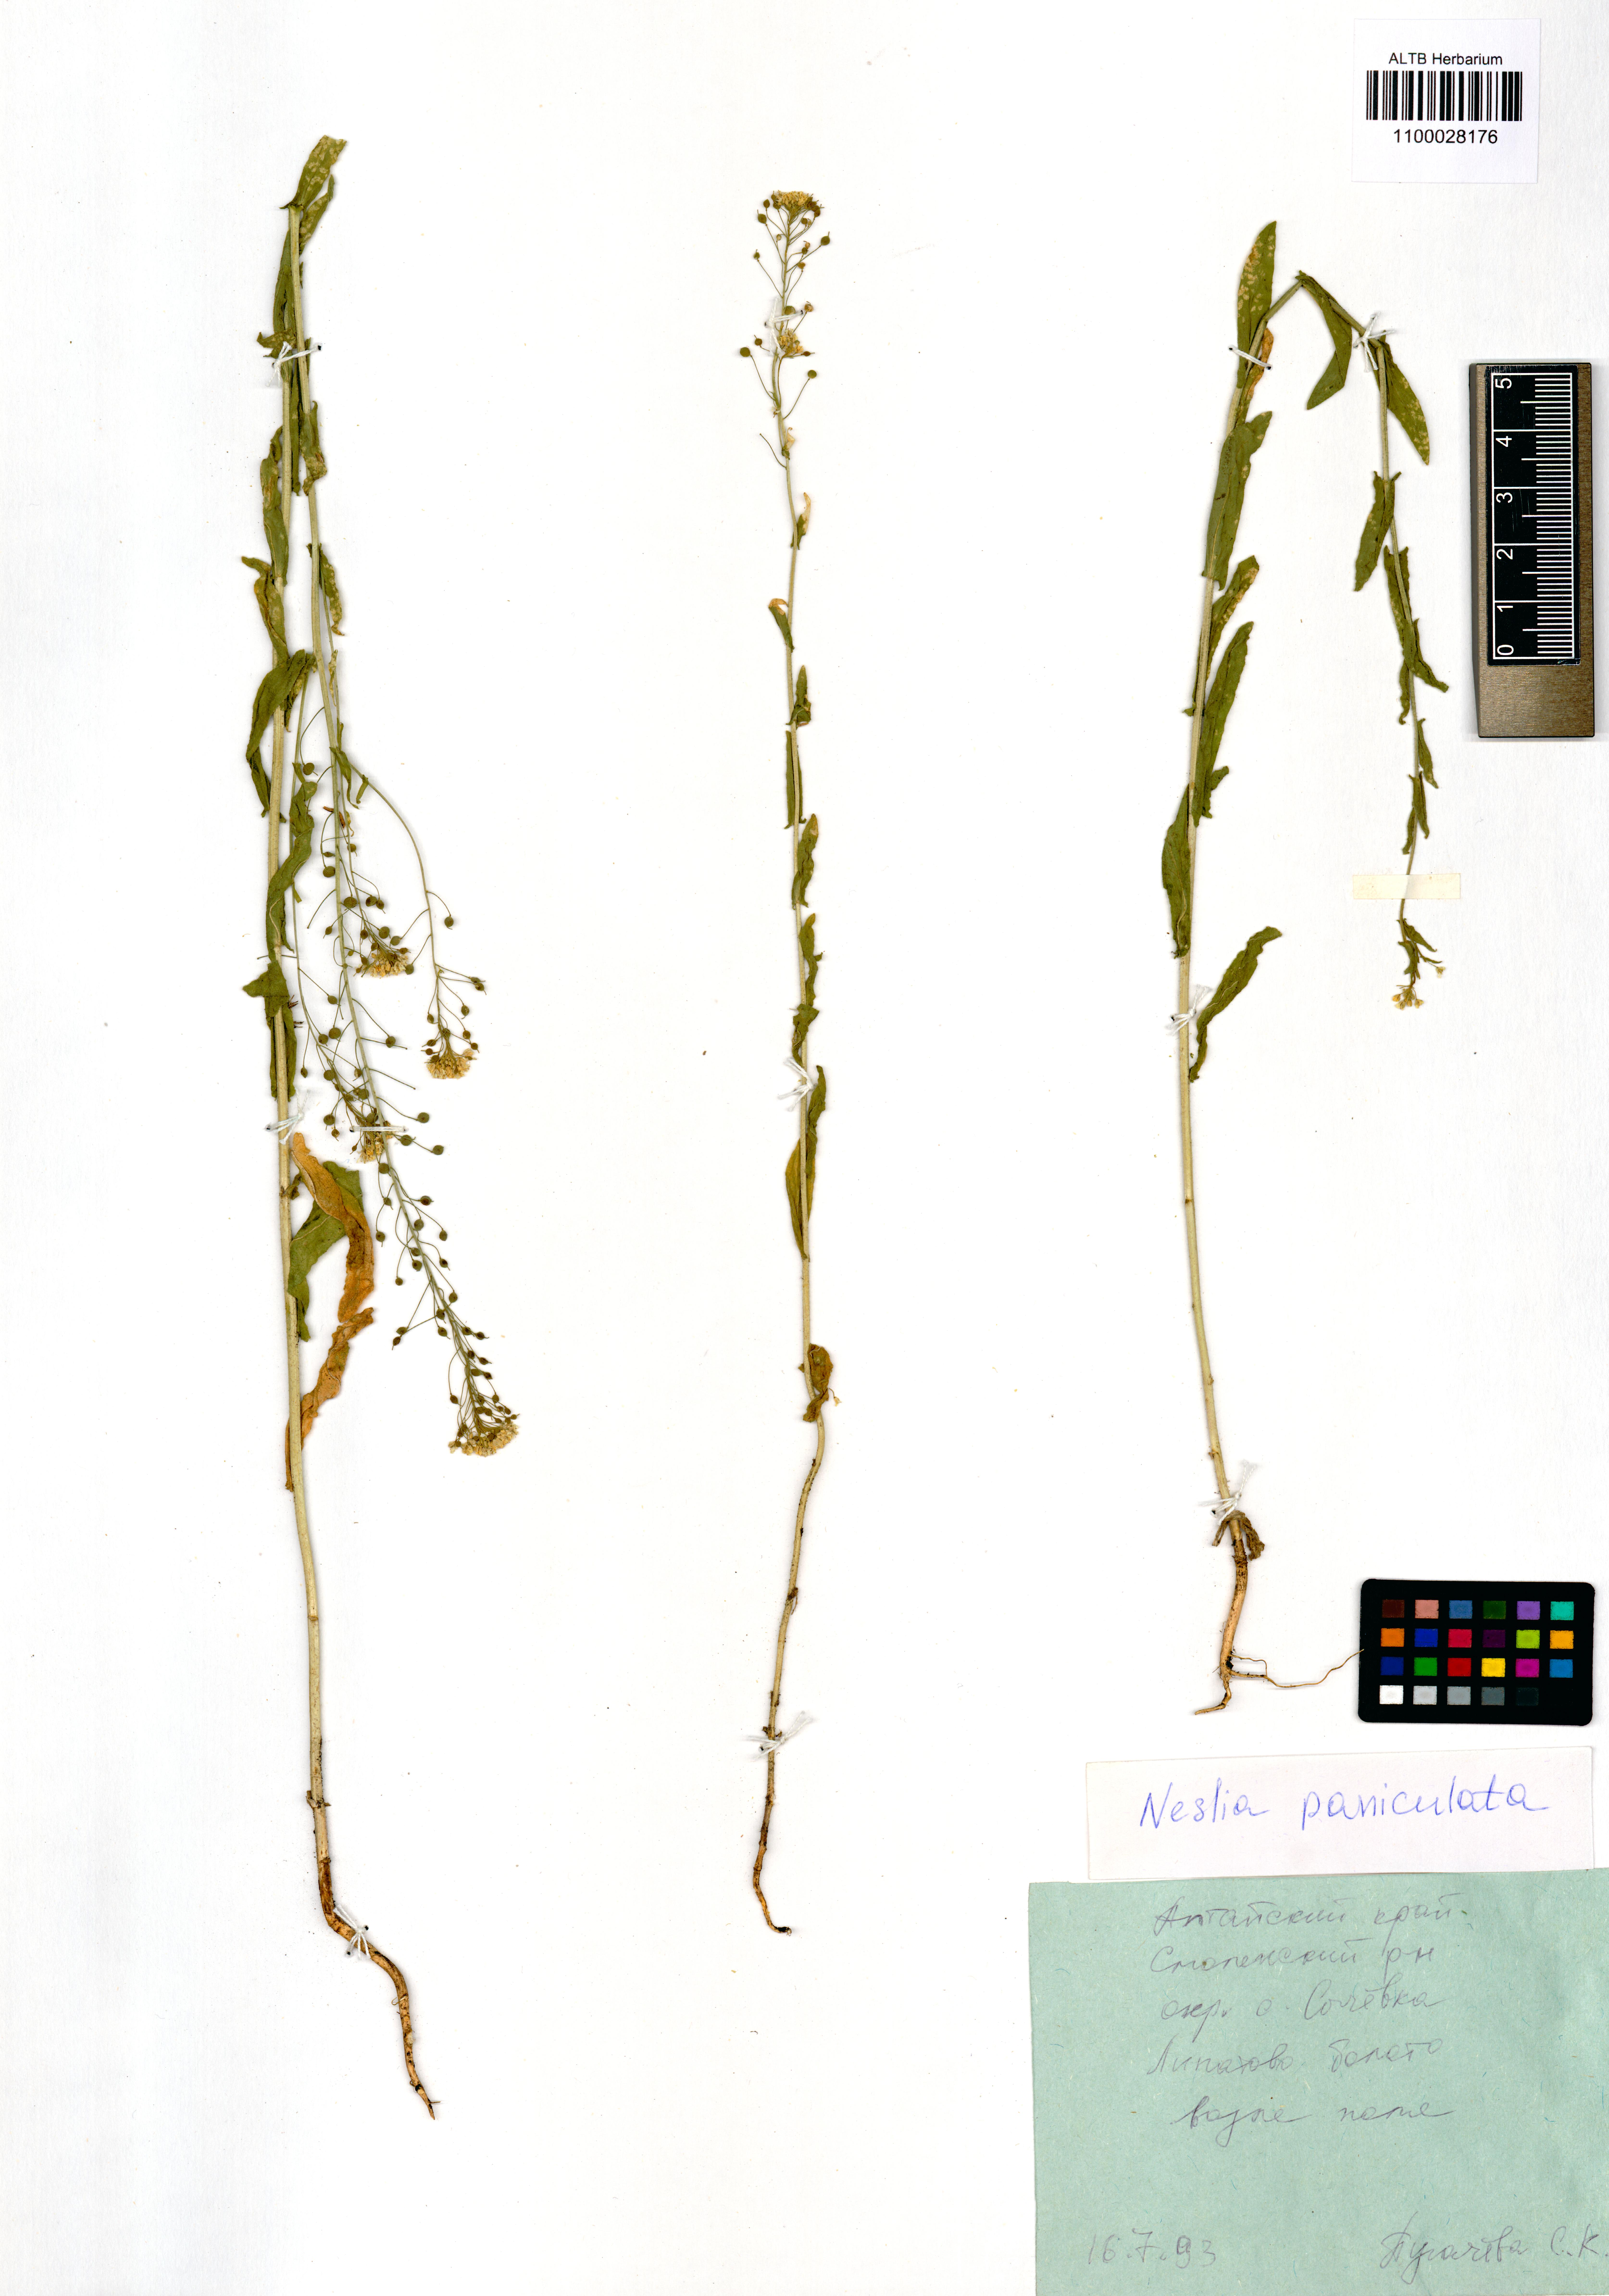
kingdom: Plantae
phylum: Tracheophyta
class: Magnoliopsida
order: Brassicales
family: Brassicaceae
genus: Neslia
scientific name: Neslia paniculata
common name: Ball mustard
